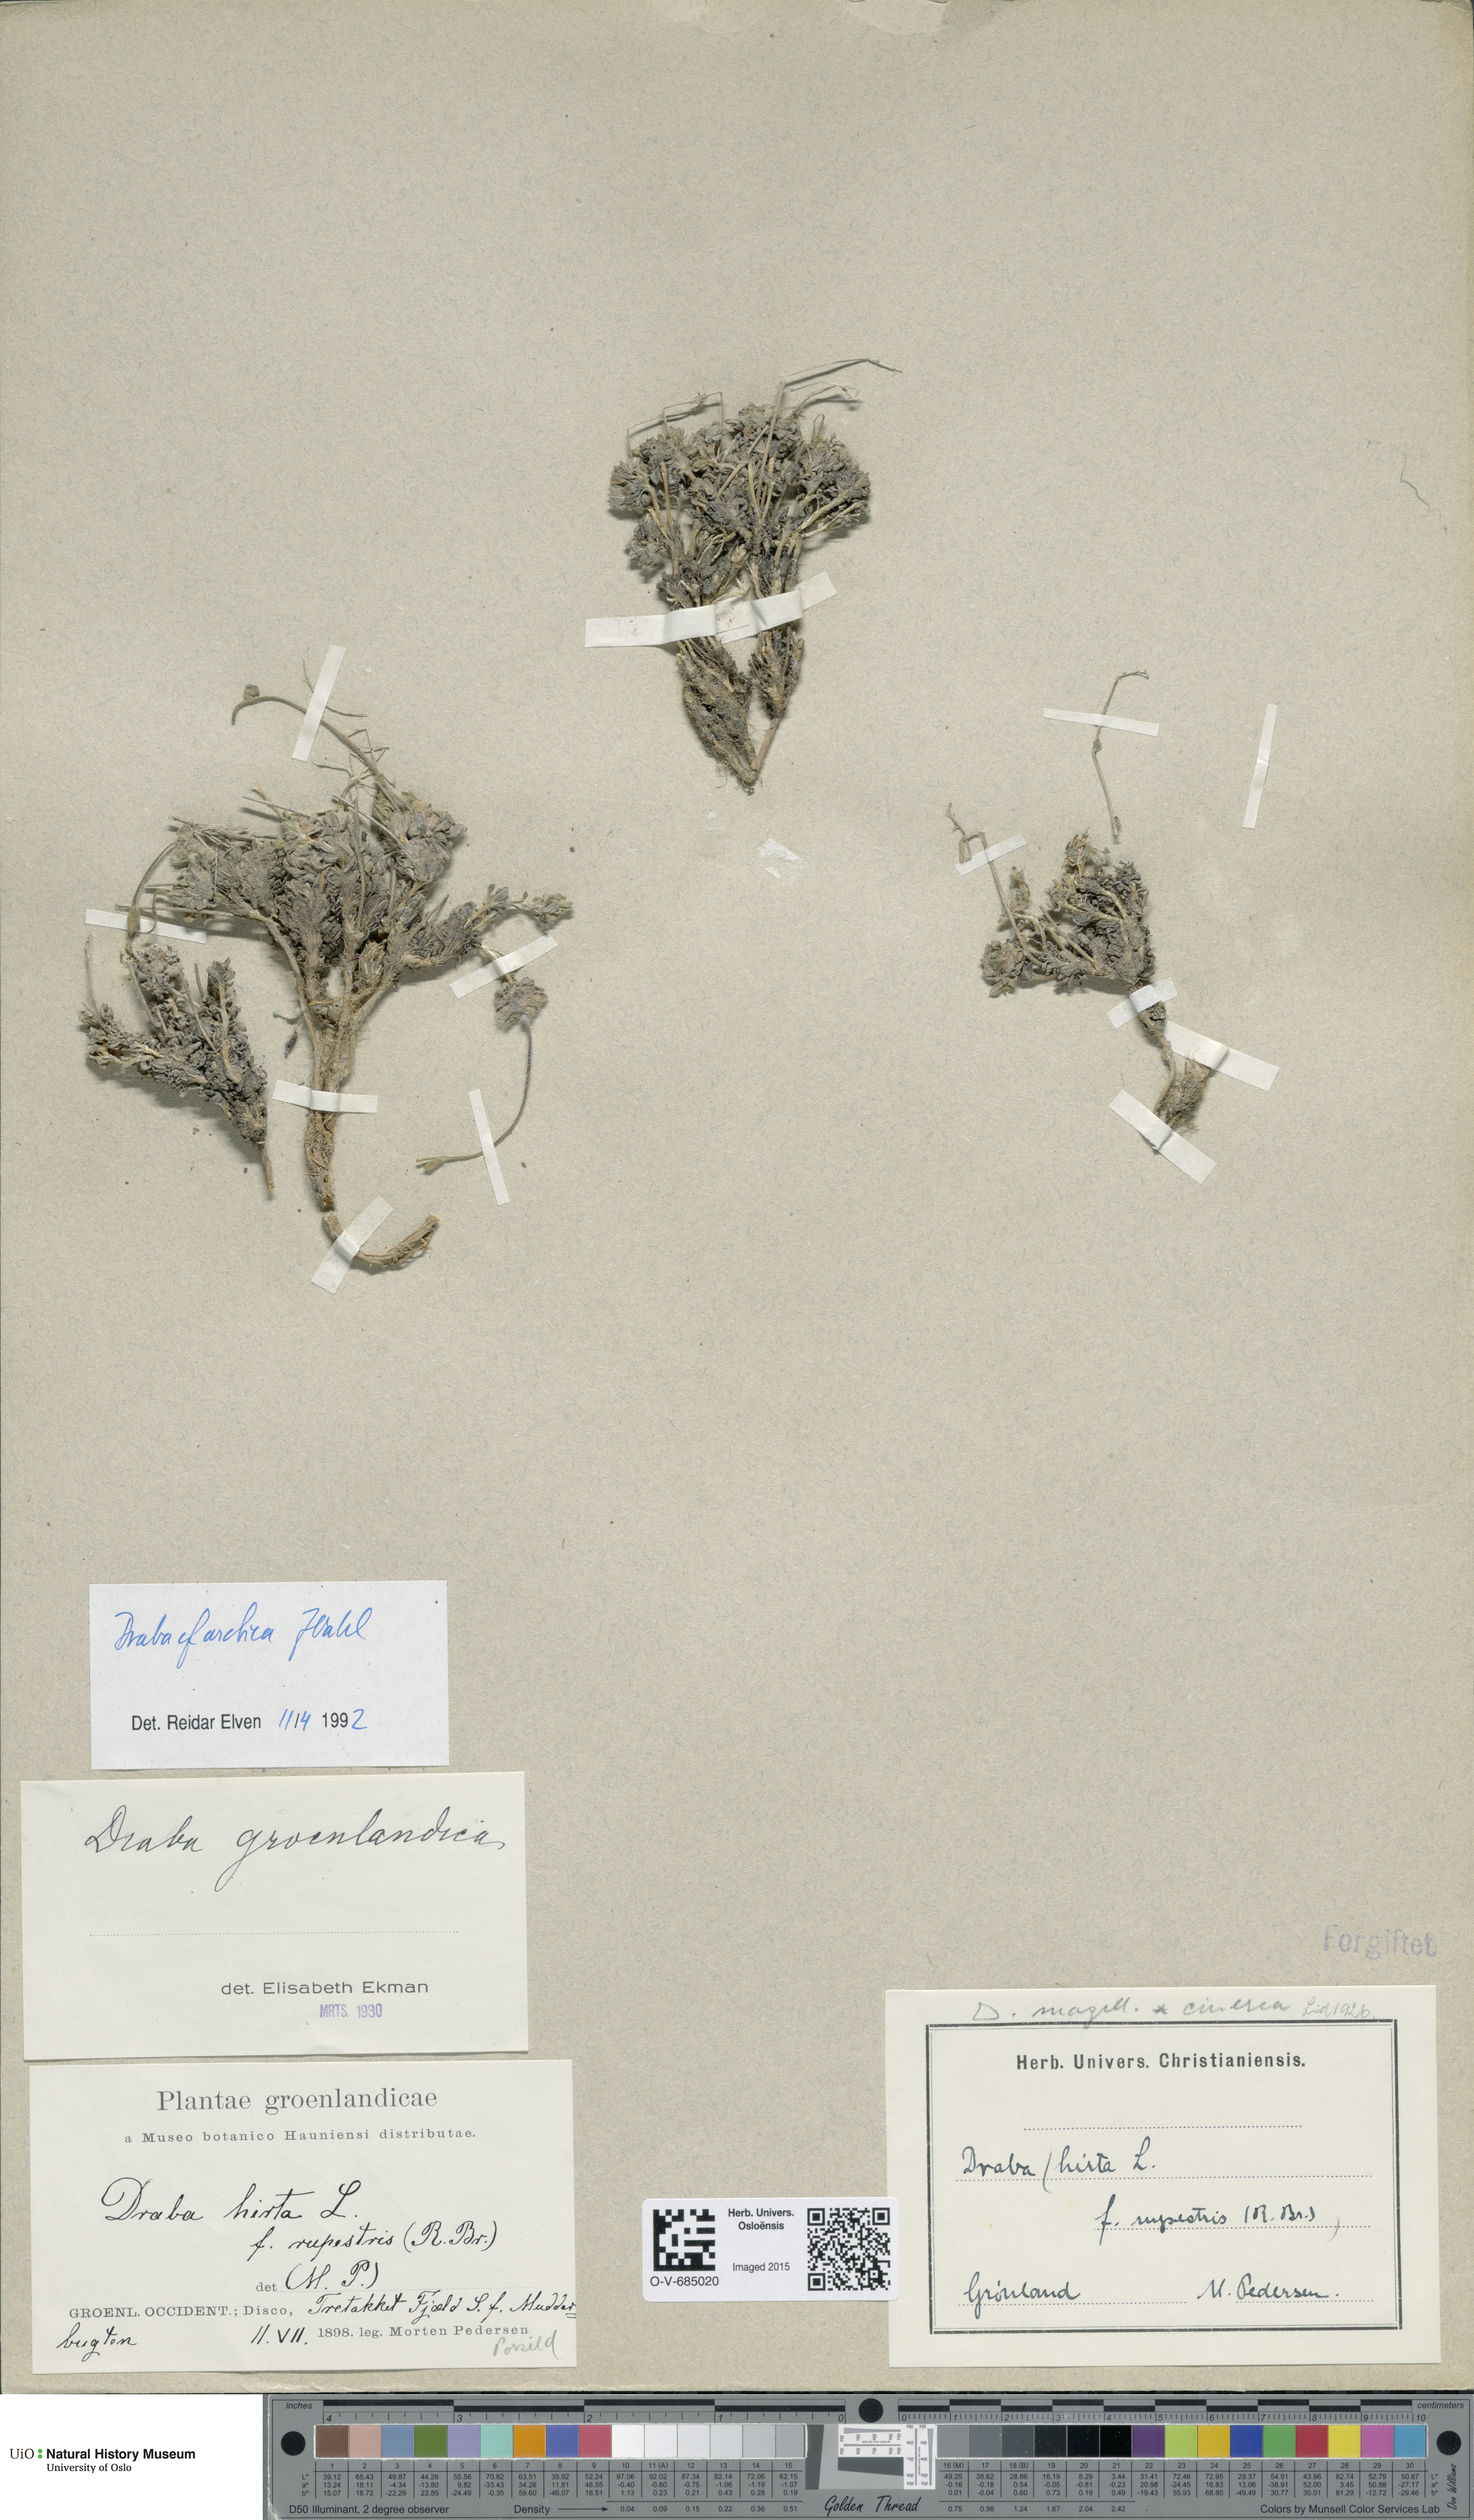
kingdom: Plantae
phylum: Tracheophyta
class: Magnoliopsida
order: Brassicales
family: Brassicaceae
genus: Draba
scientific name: Draba arctica
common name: Arctic draba
